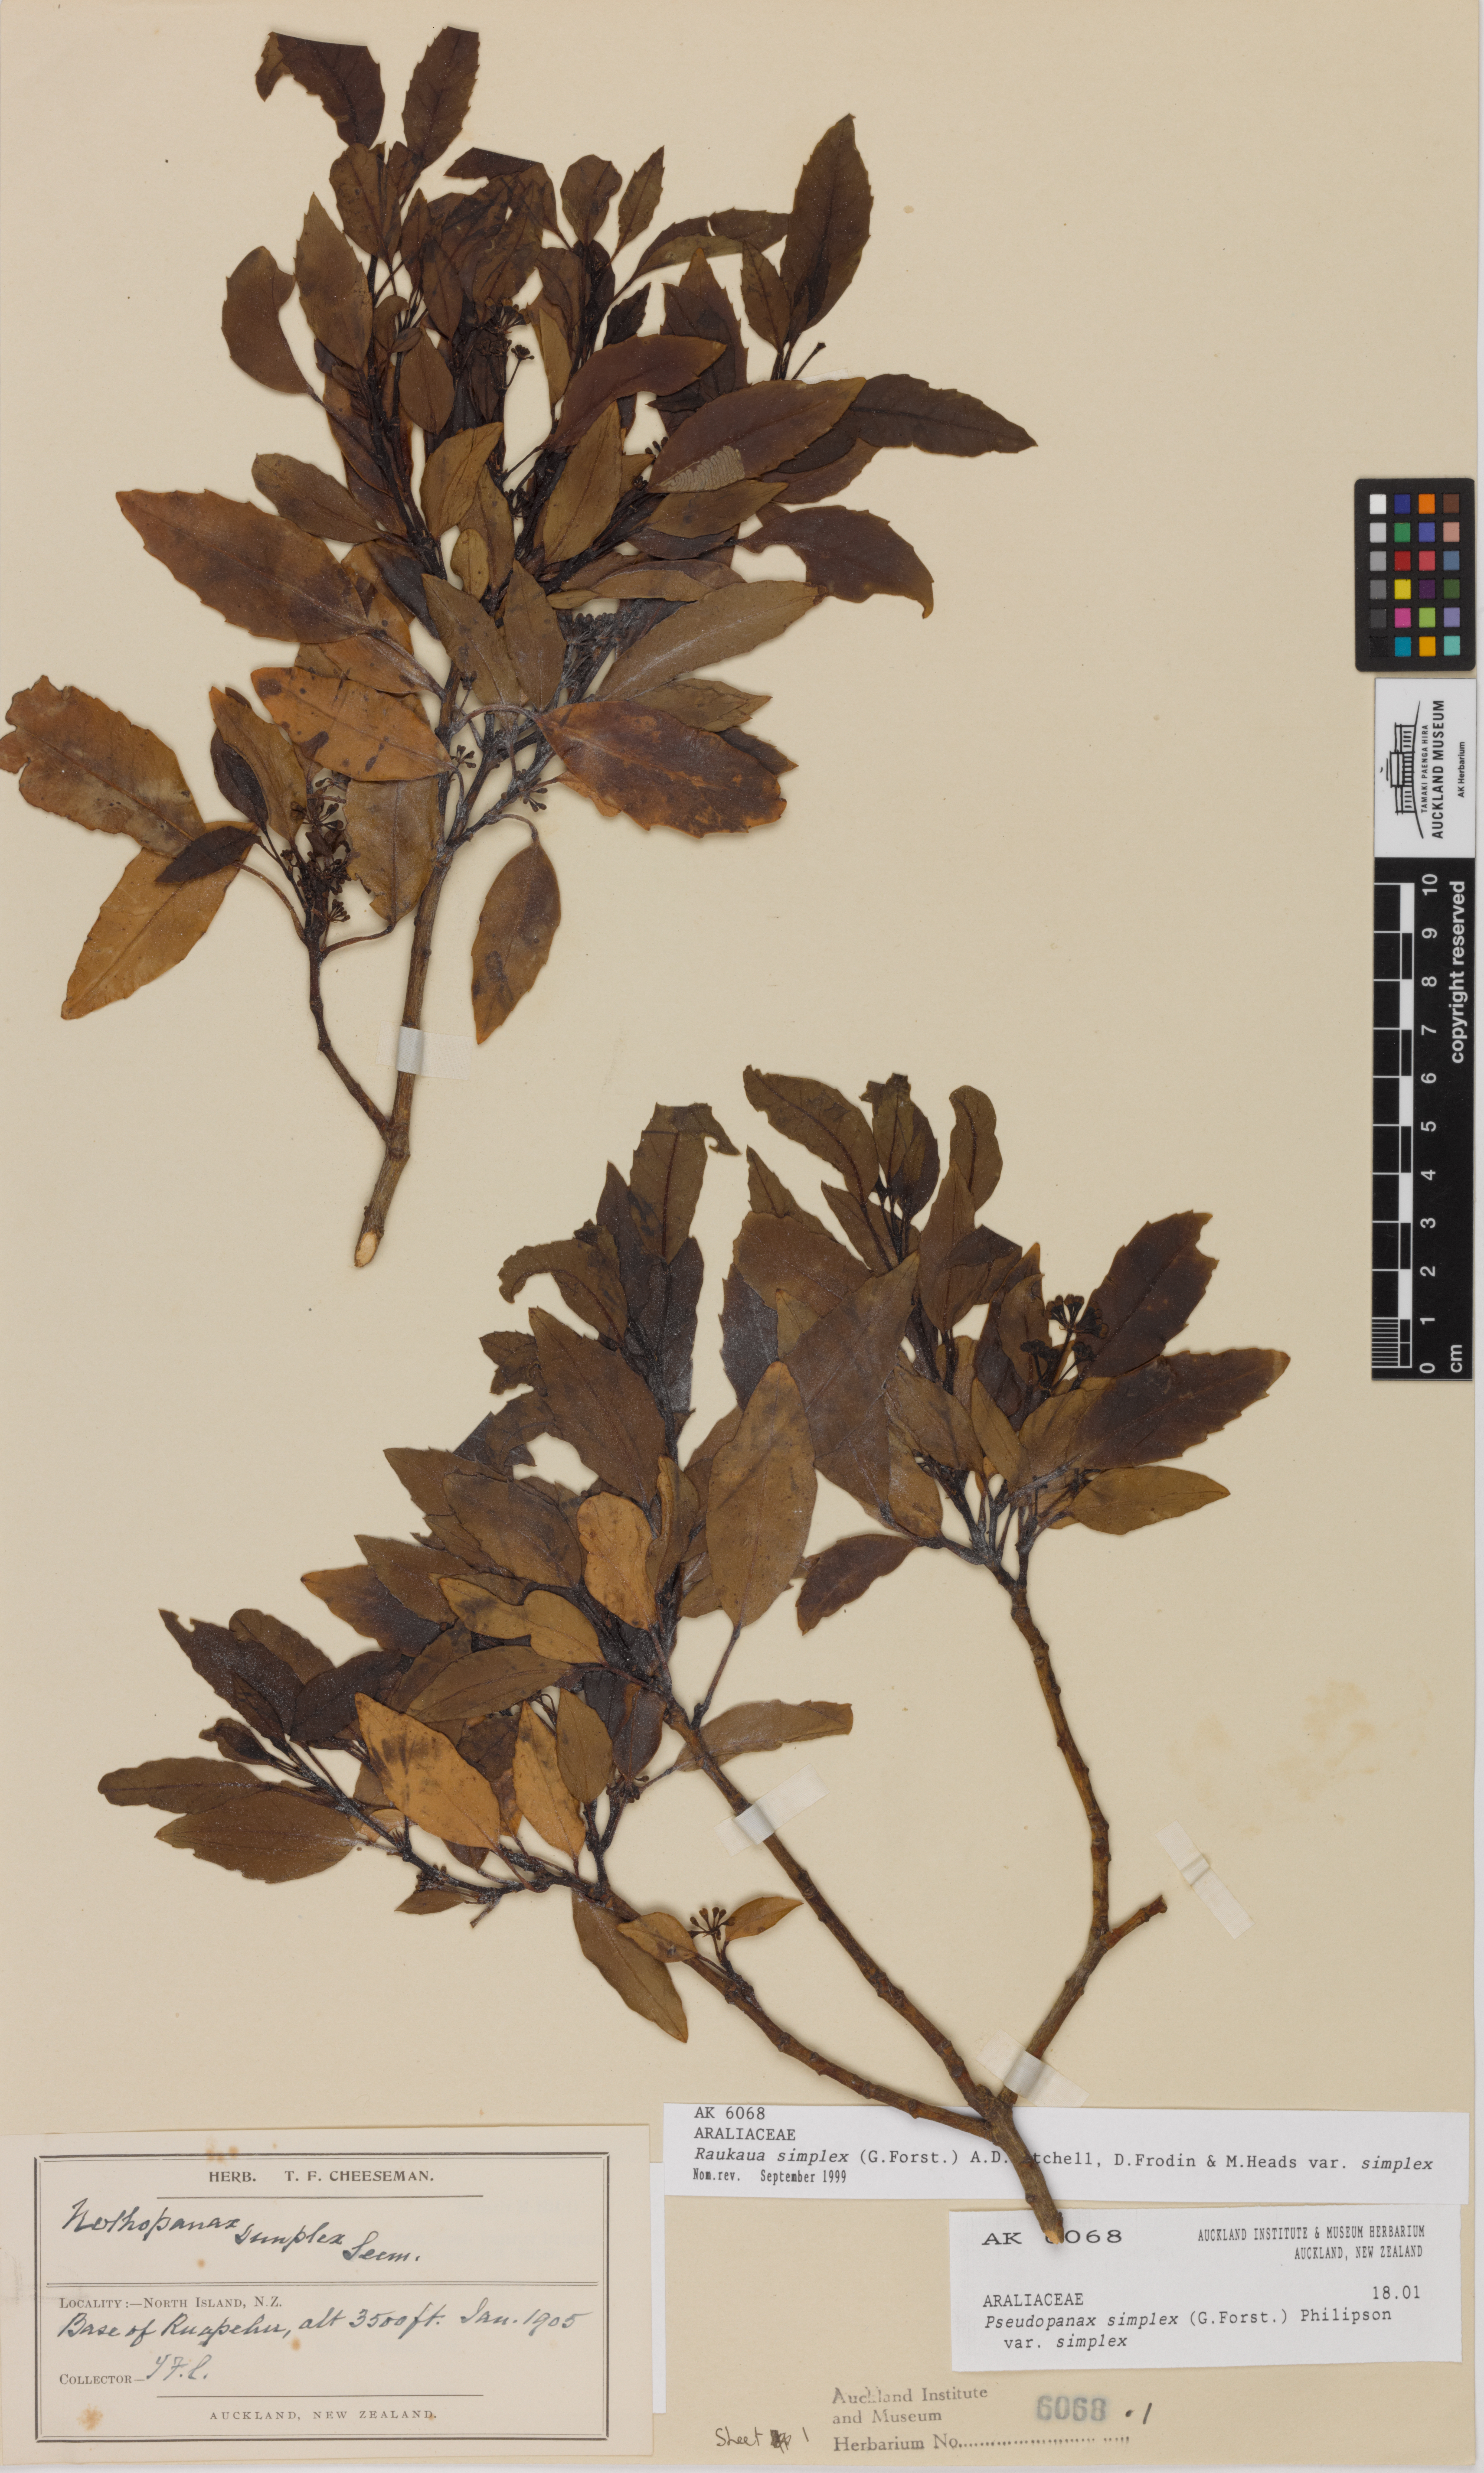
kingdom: Plantae
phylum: Tracheophyta
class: Magnoliopsida
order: Apiales
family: Araliaceae
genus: Raukaua
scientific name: Raukaua simplex
